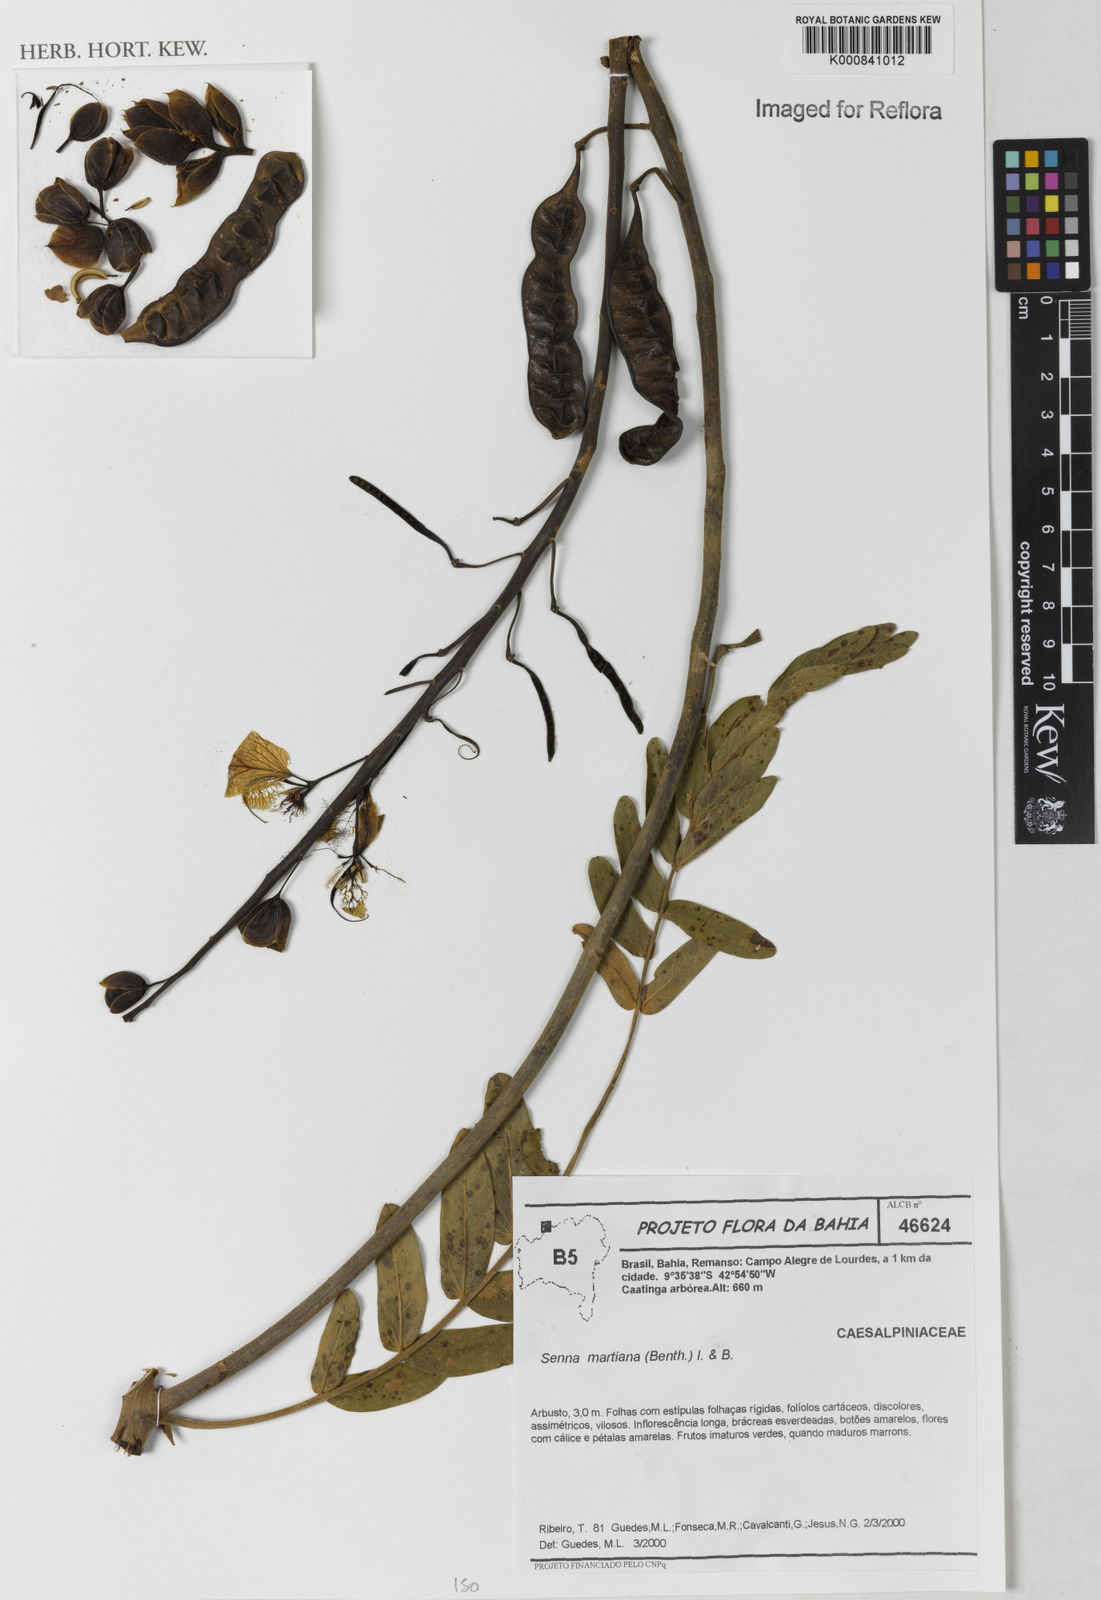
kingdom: Plantae
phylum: Tracheophyta
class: Magnoliopsida
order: Fabales
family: Fabaceae
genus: Senna
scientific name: Senna martiana
